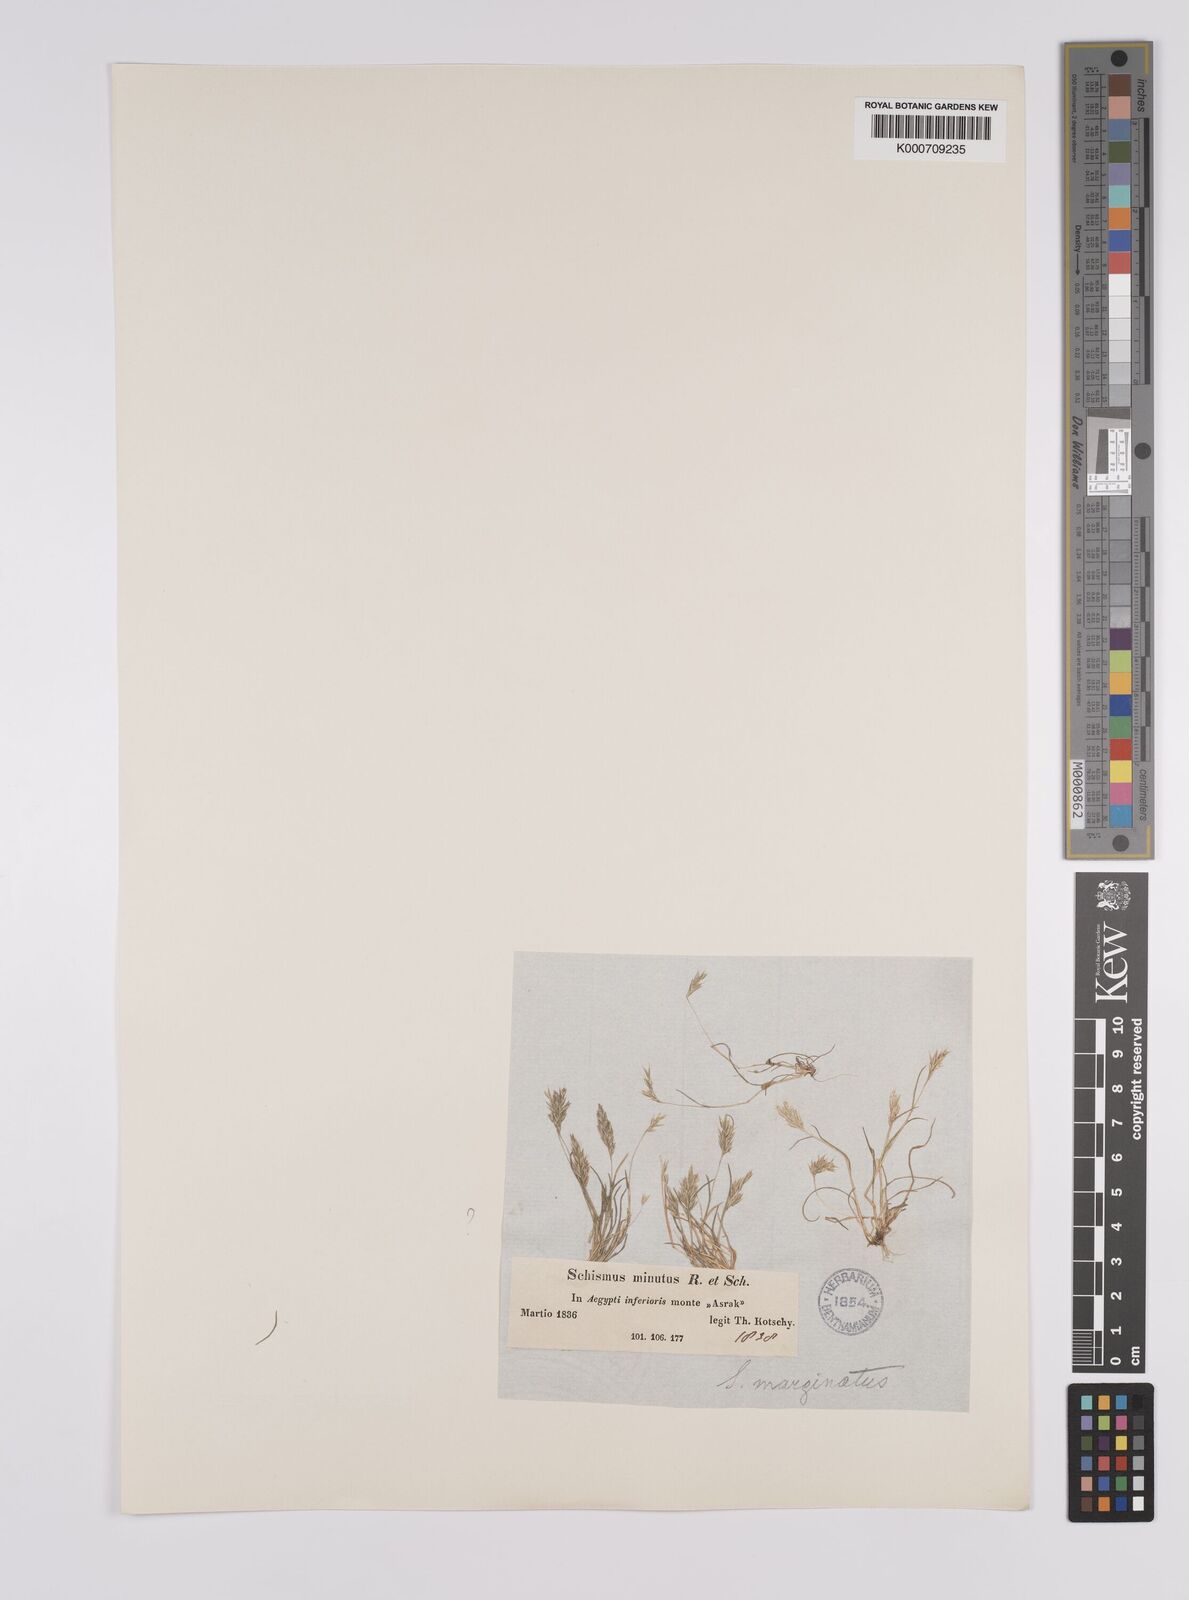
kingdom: Plantae
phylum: Tracheophyta
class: Liliopsida
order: Poales
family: Poaceae
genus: Schismus
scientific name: Schismus barbatus
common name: Kelch-grass
